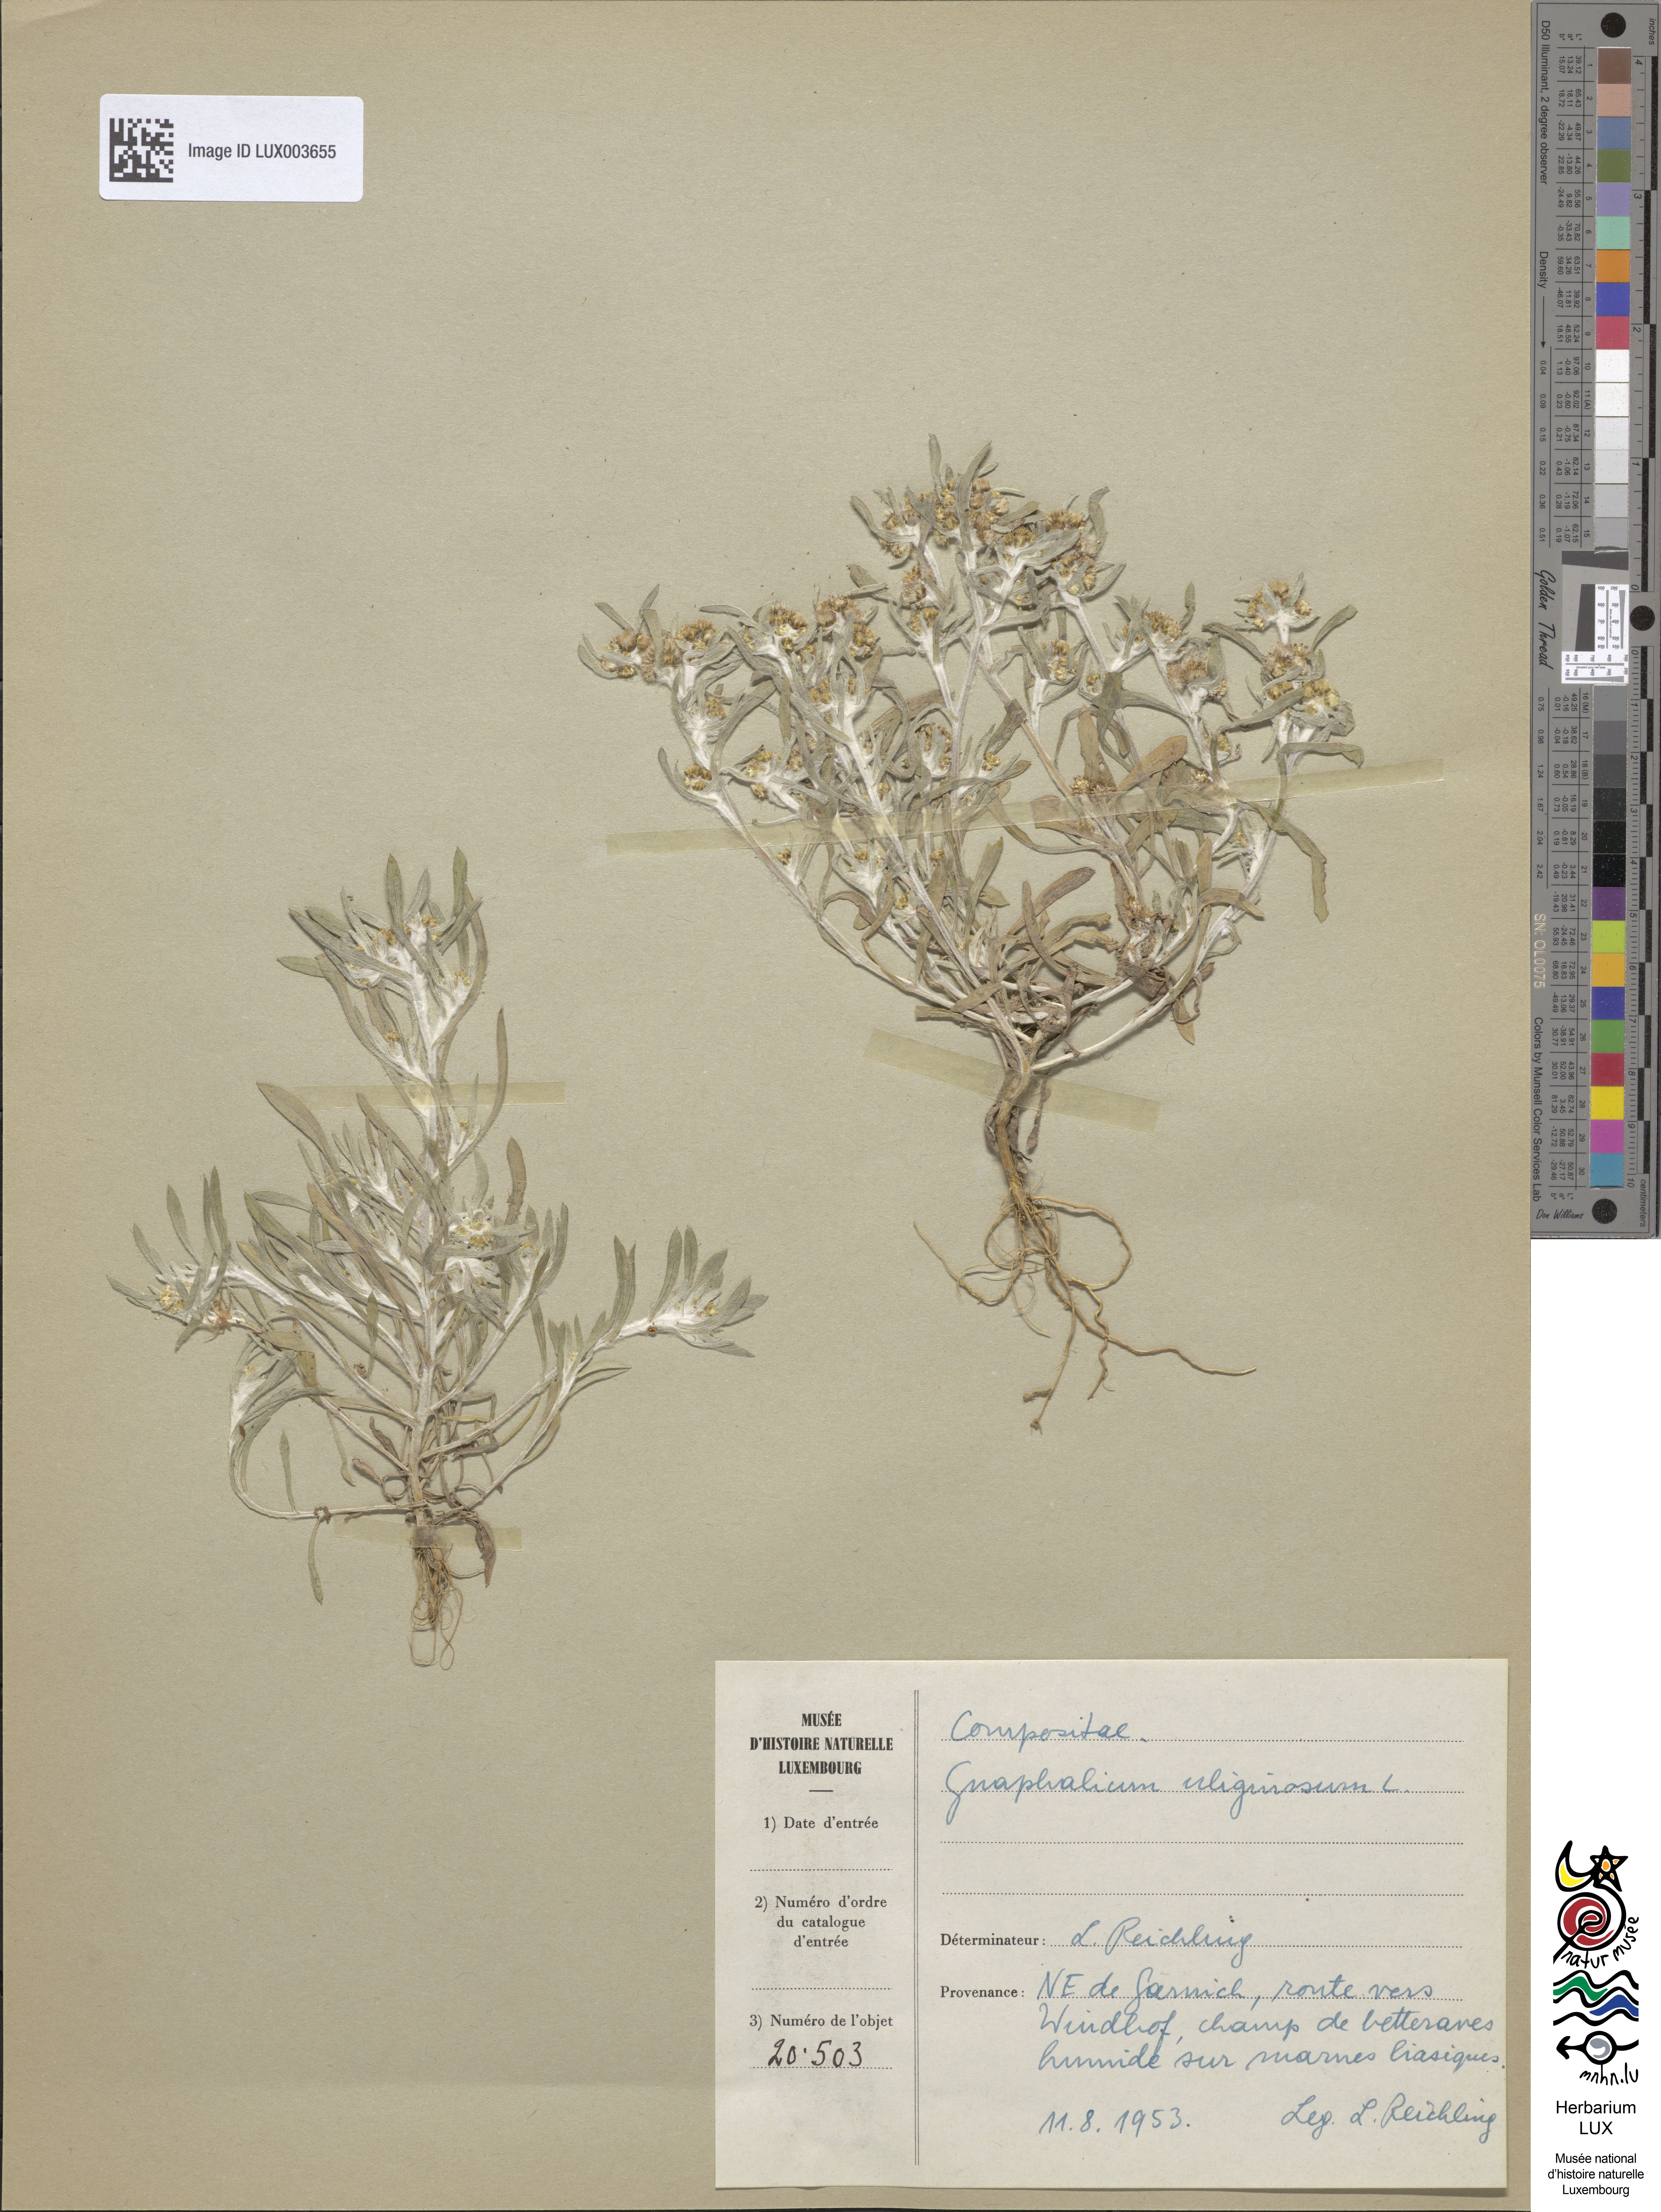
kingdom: Plantae
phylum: Tracheophyta
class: Magnoliopsida
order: Asterales
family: Asteraceae
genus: Gnaphalium
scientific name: Gnaphalium uliginosum
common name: Marsh cudweed
